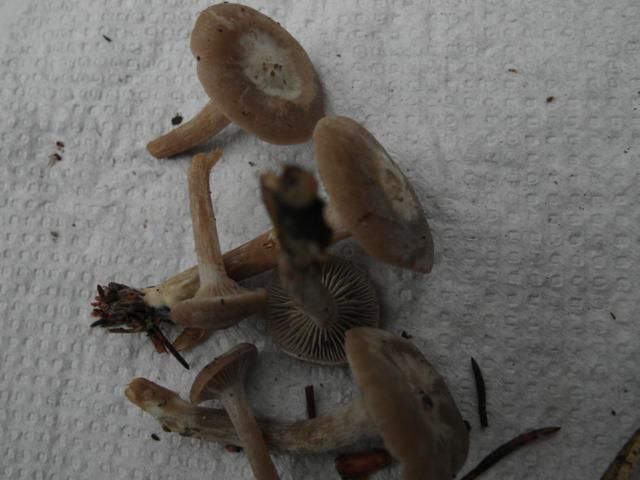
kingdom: Fungi
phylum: Basidiomycota
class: Agaricomycetes
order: Agaricales
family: Tricholomataceae
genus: Clitocybe
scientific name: Clitocybe vibecina
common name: randstribet tragthat
